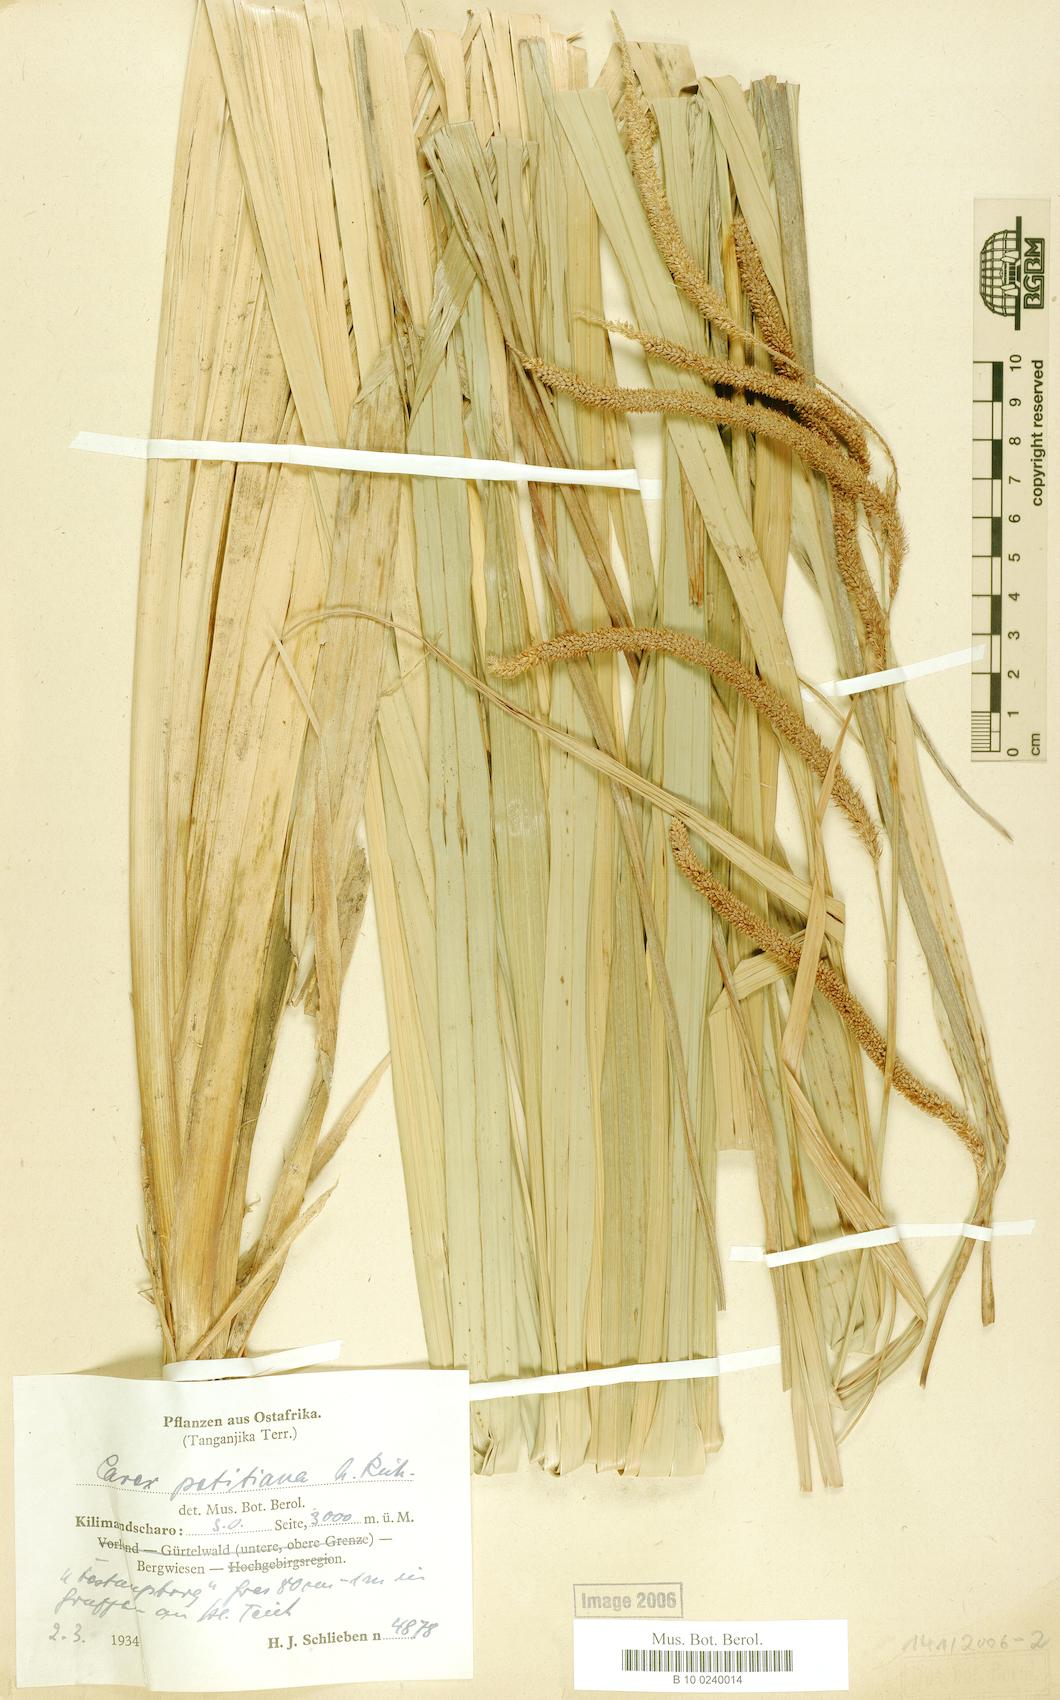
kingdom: Plantae
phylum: Tracheophyta
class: Liliopsida
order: Poales
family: Cyperaceae
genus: Carex
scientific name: Carex petitiana
